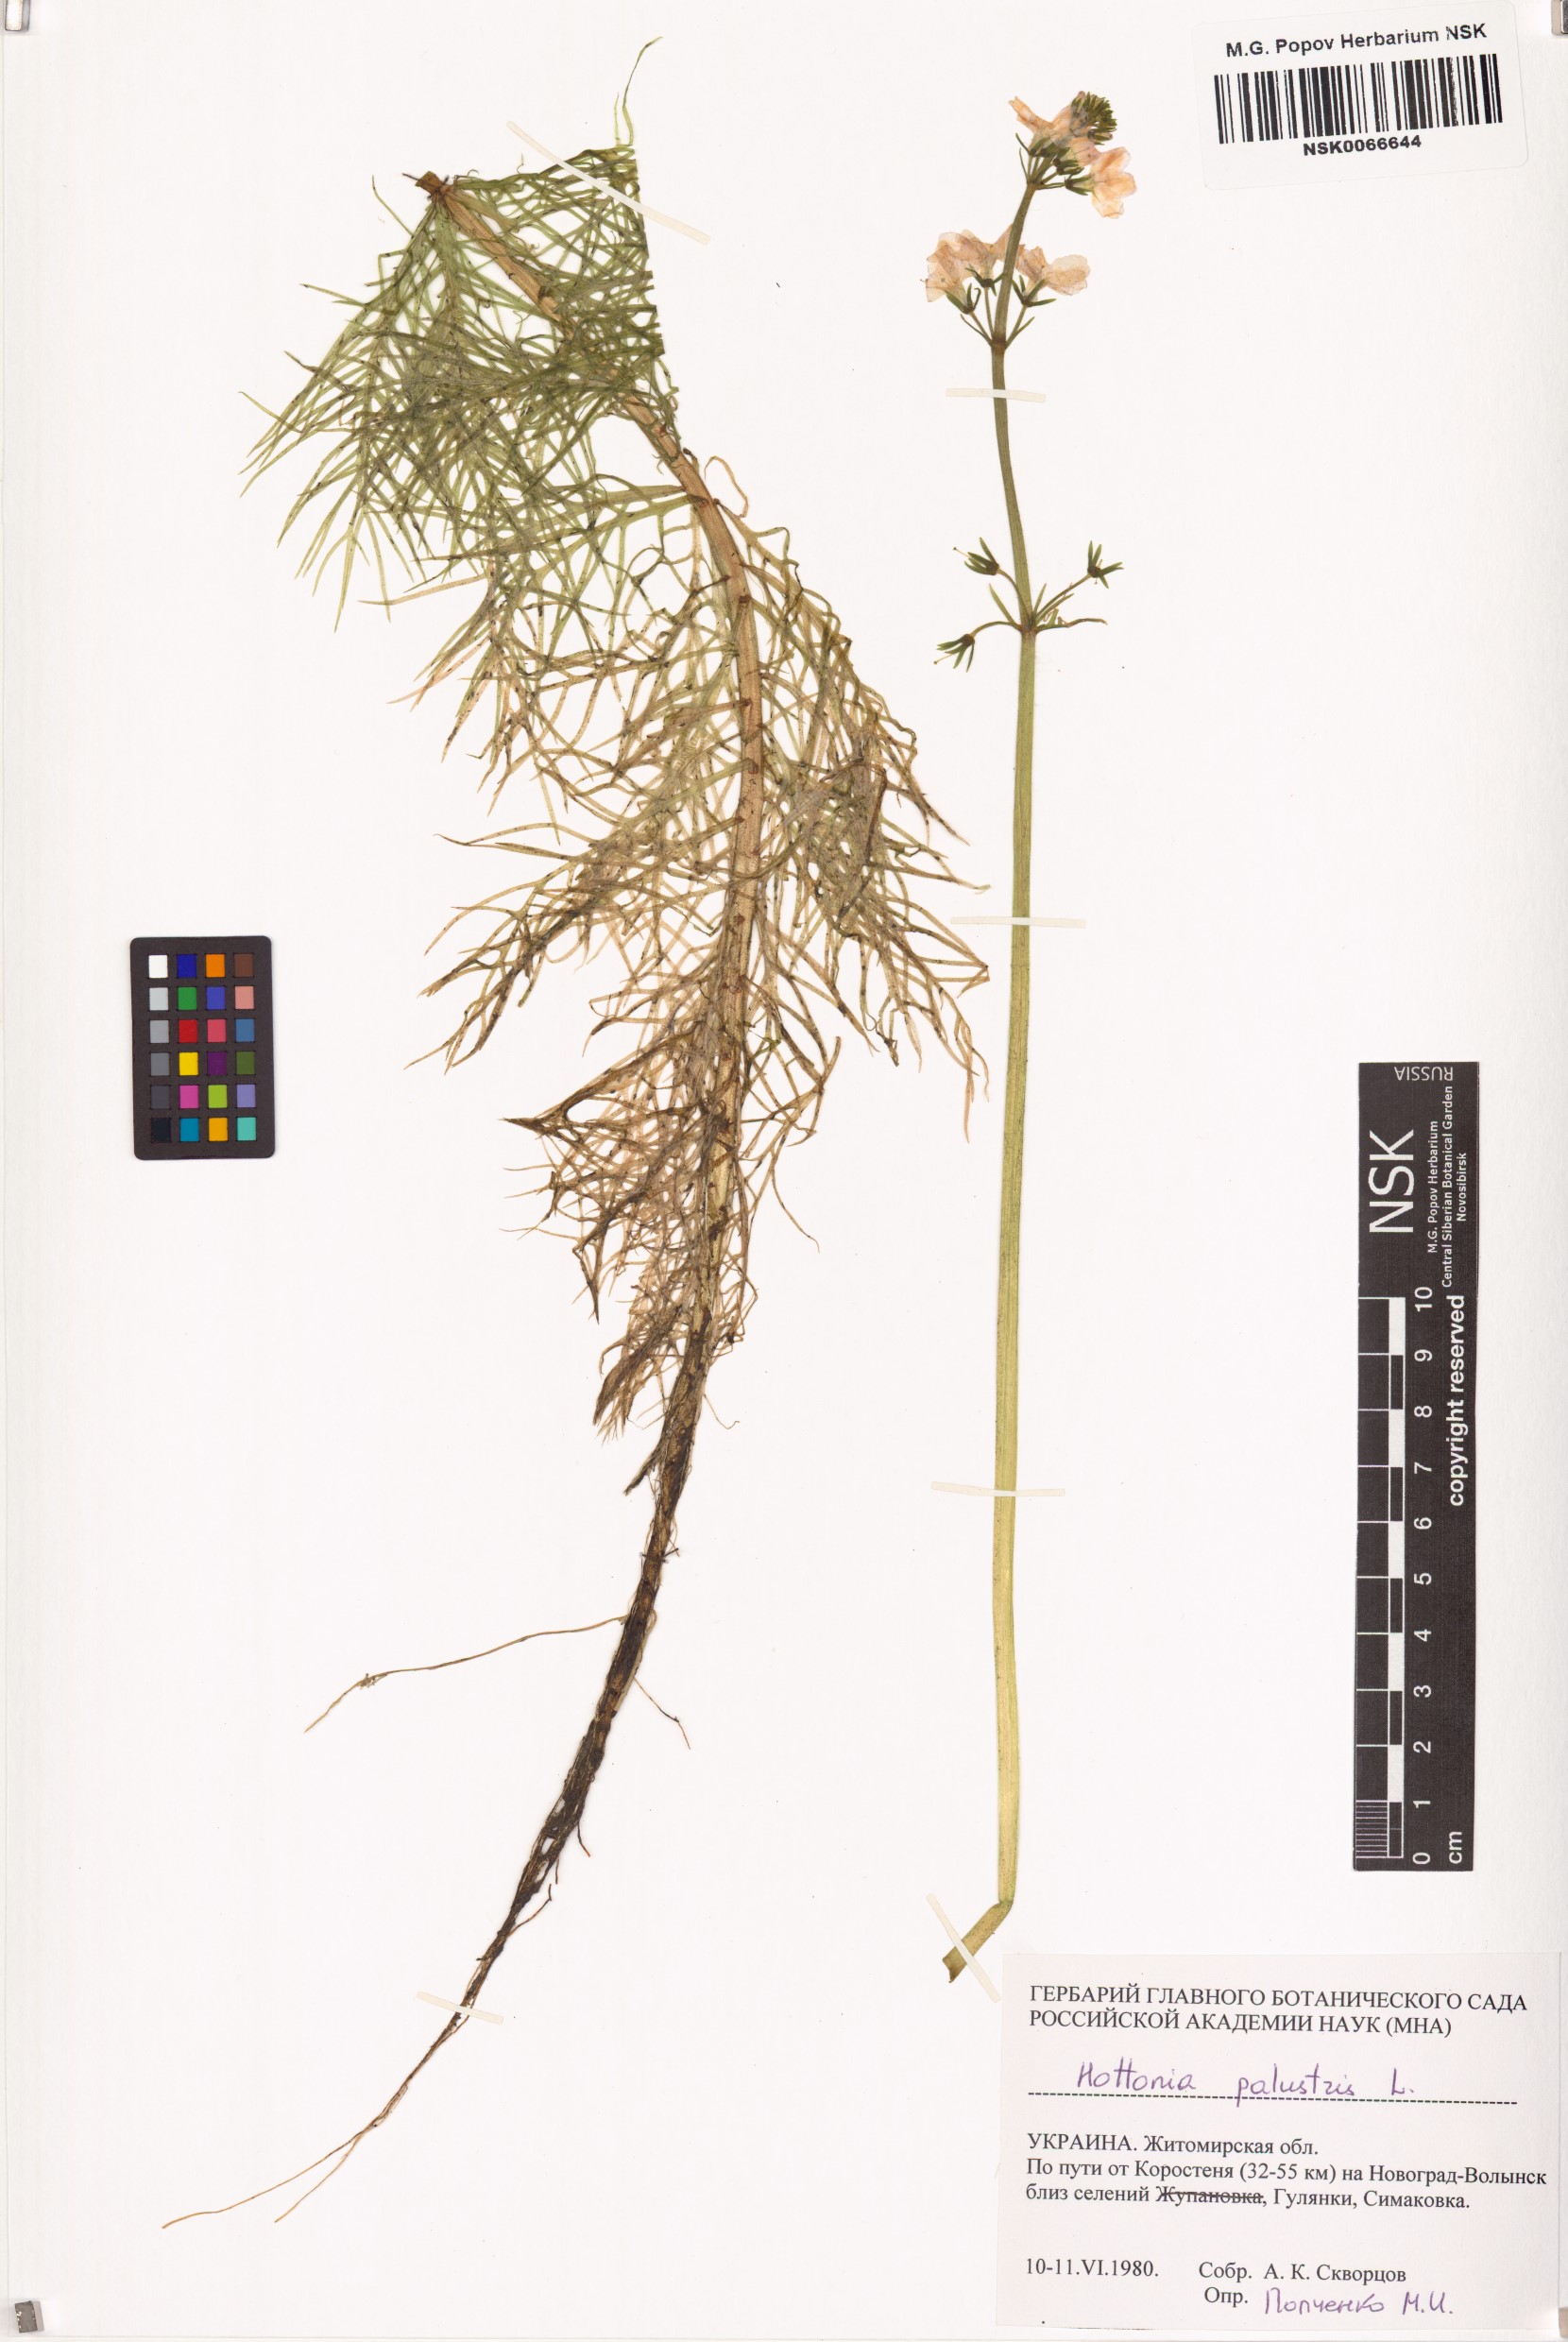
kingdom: Plantae
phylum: Tracheophyta
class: Magnoliopsida
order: Ericales
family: Primulaceae
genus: Hottonia
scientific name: Hottonia palustris
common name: Water-violet
